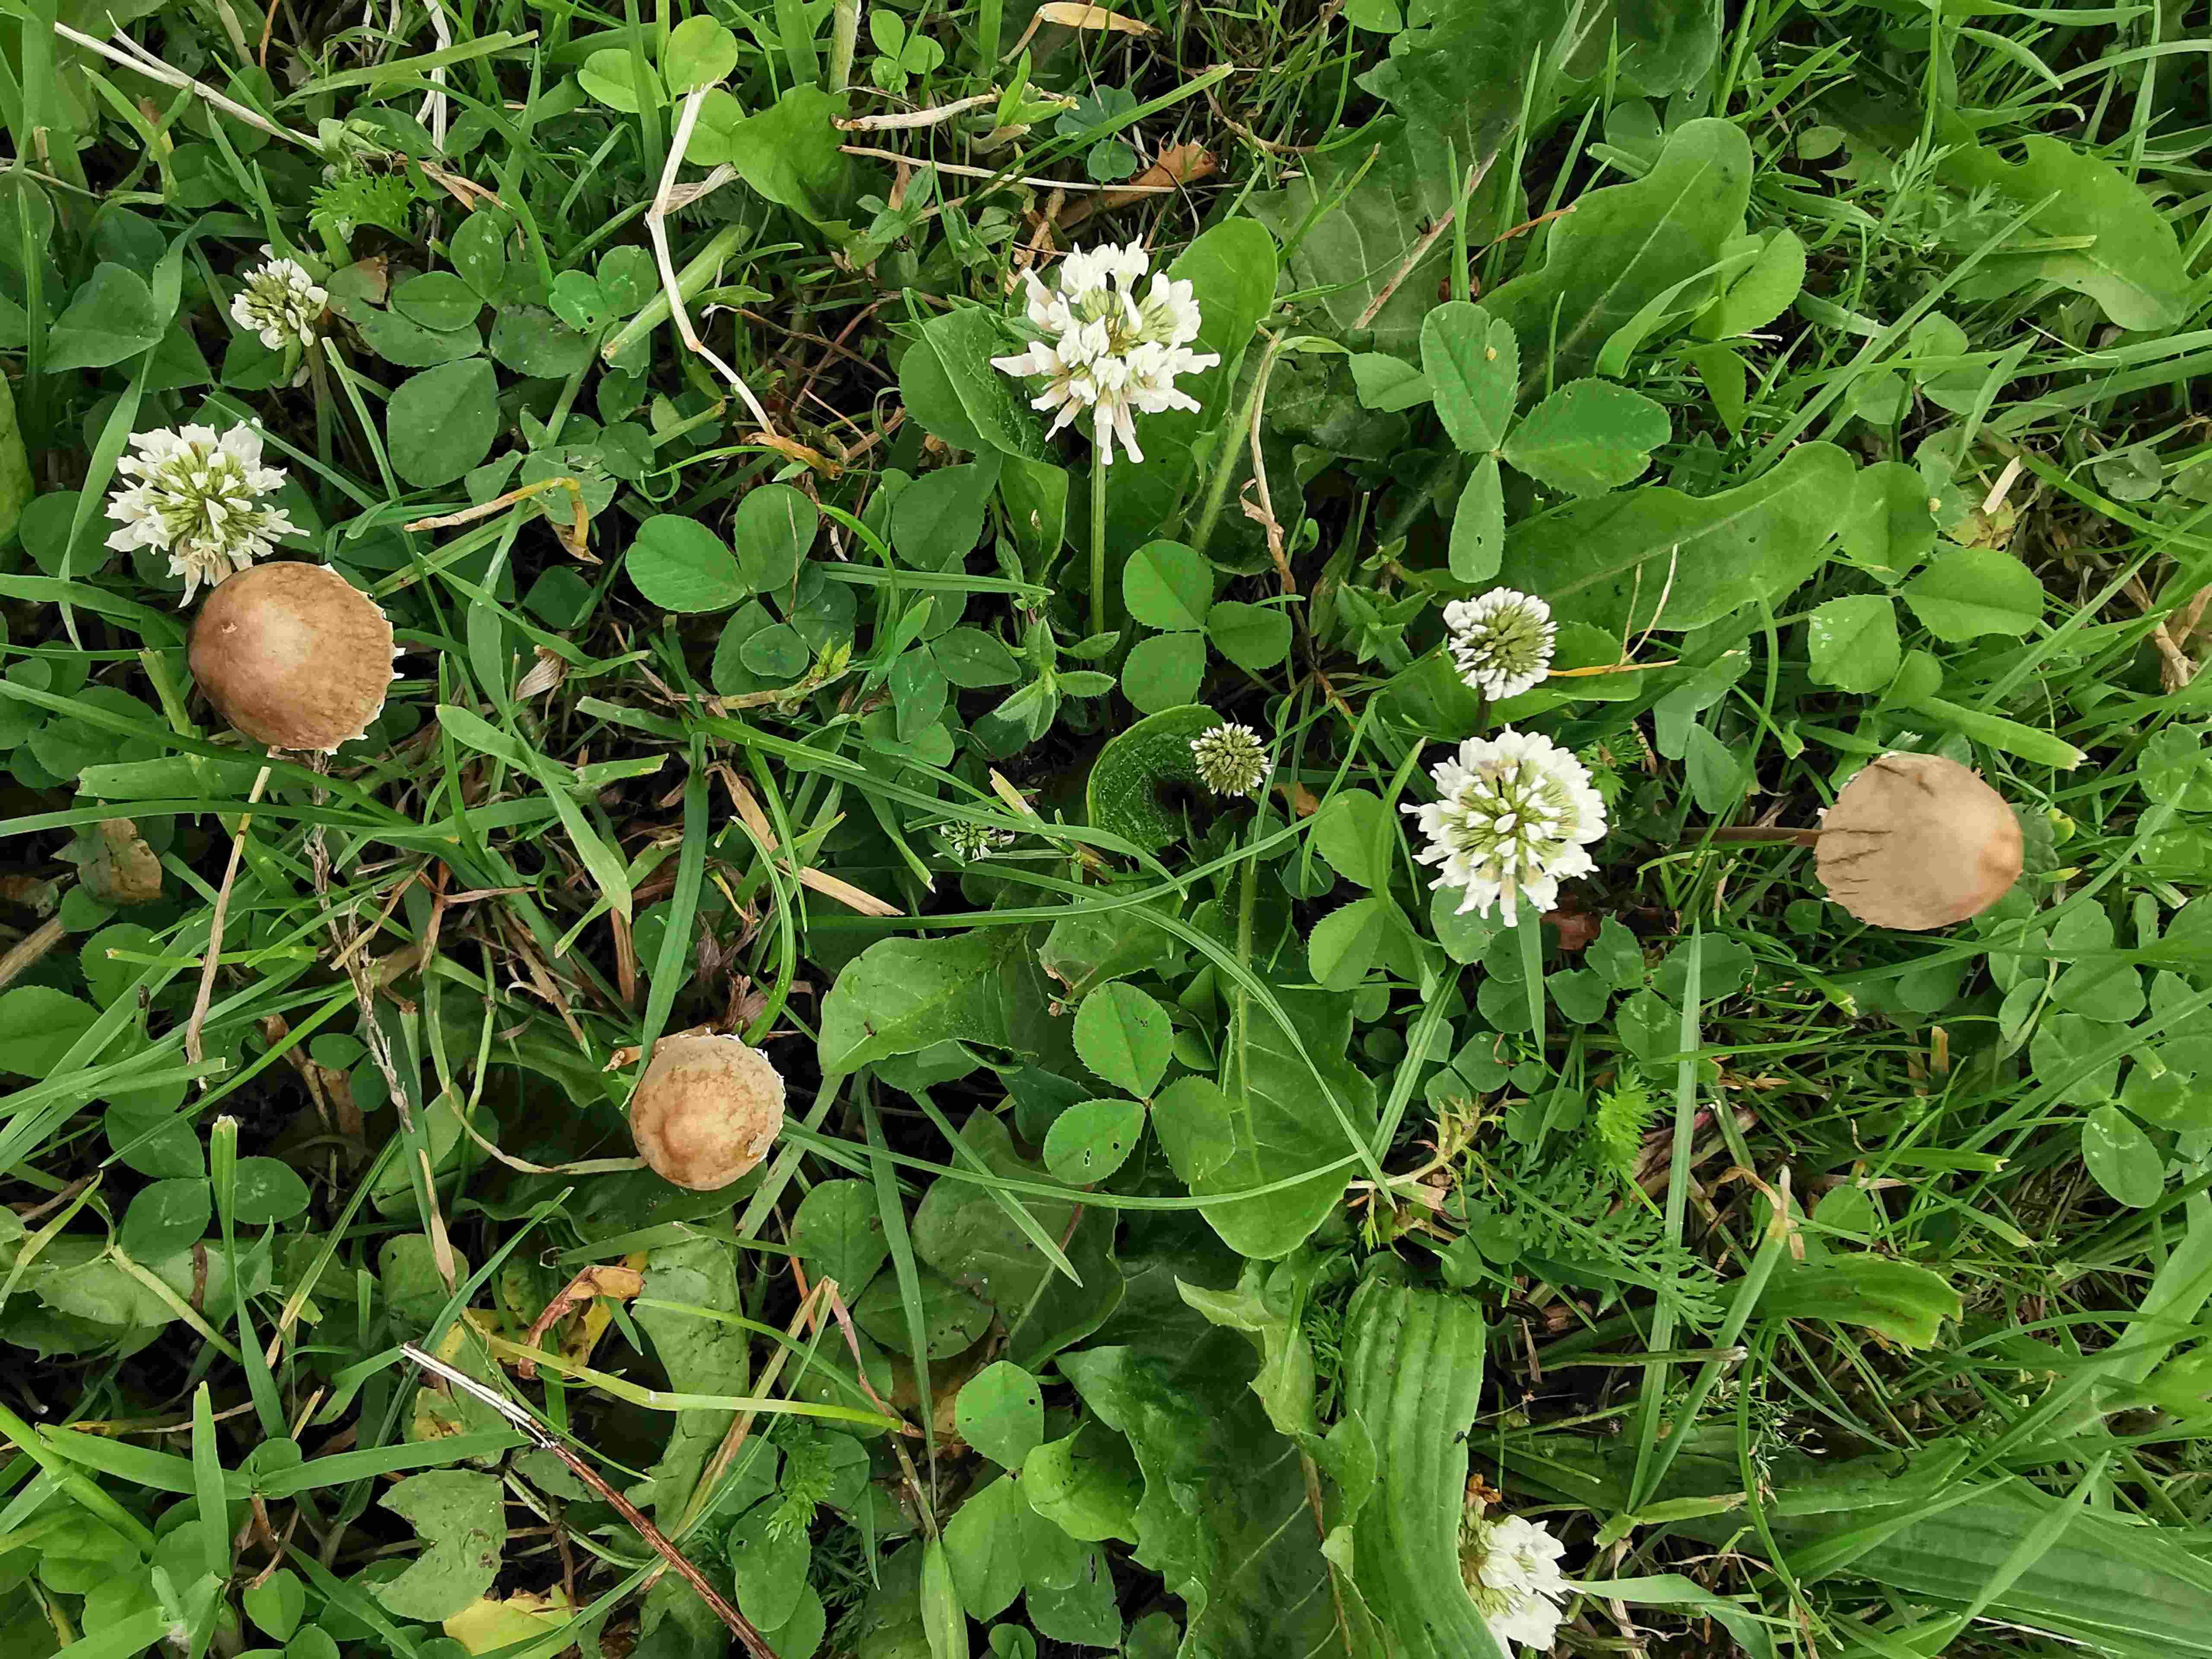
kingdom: Fungi
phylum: Basidiomycota
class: Agaricomycetes
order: Agaricales
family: Bolbitiaceae
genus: Panaeolus
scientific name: Panaeolus papilionaceus
